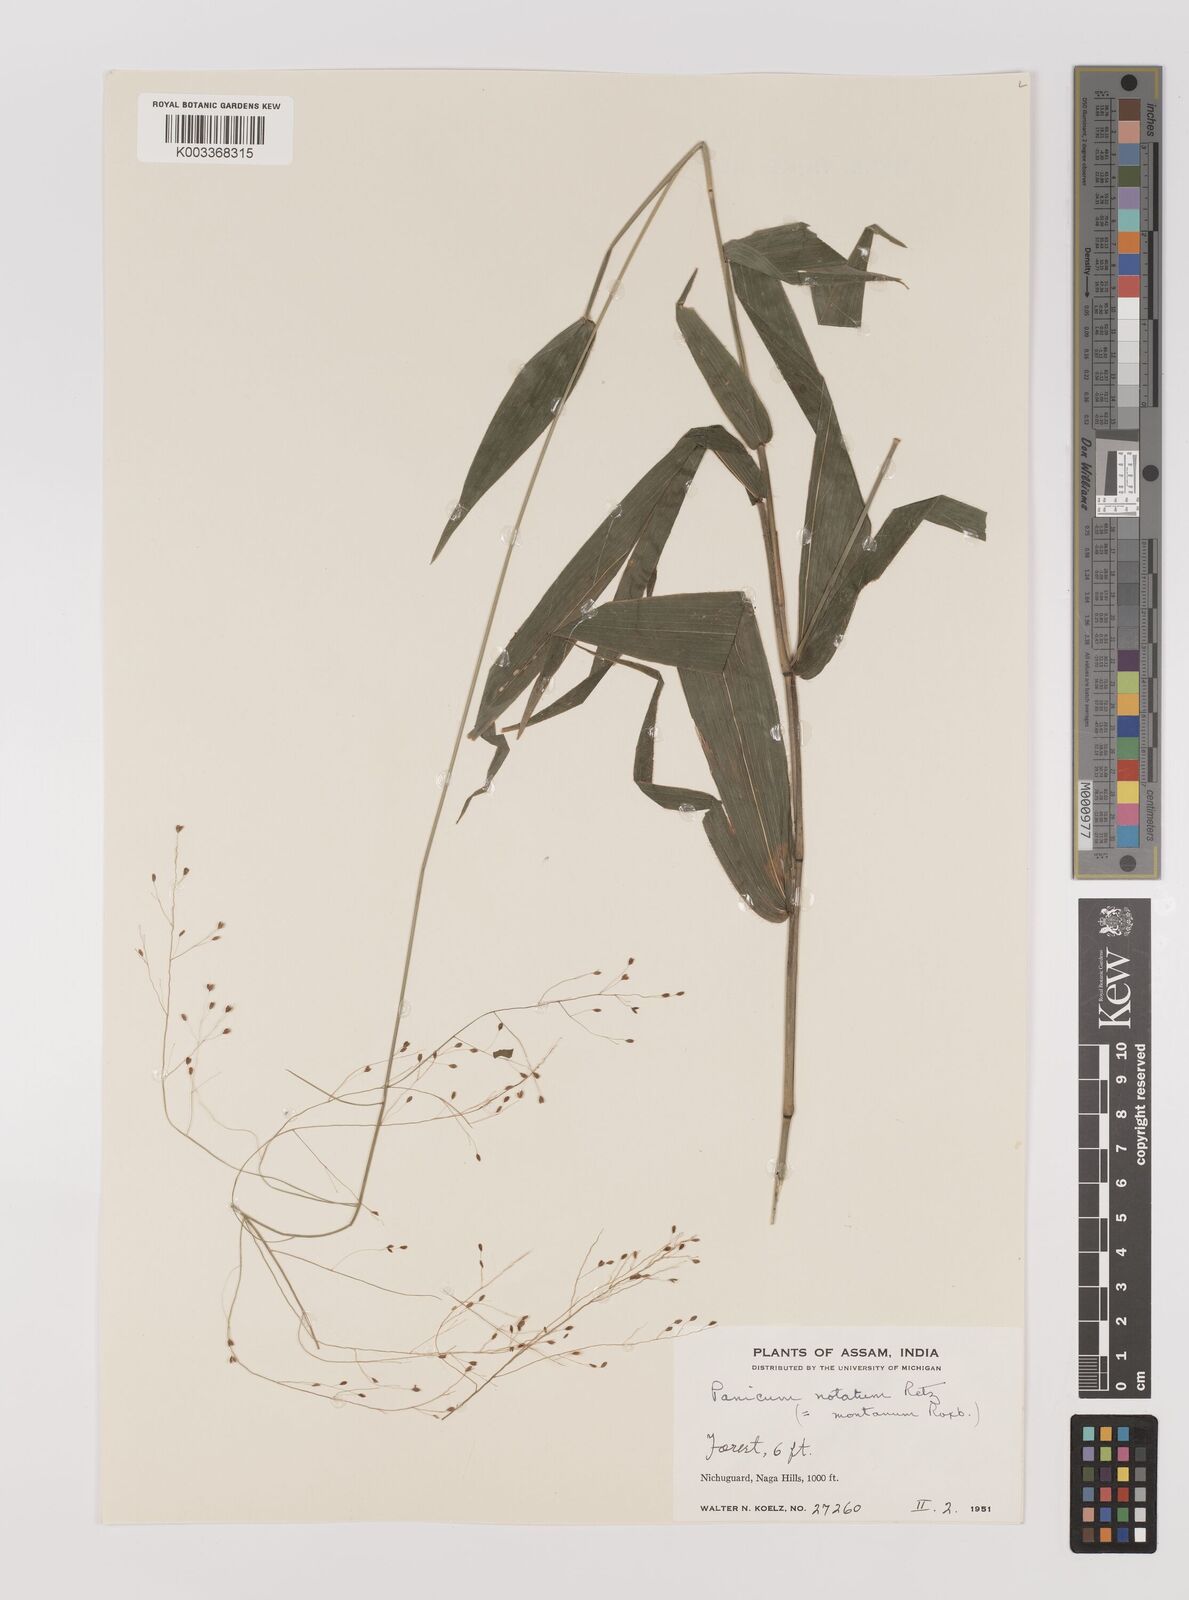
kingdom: Plantae
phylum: Tracheophyta
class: Liliopsida
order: Poales
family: Poaceae
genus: Panicum
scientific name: Panicum notatum
